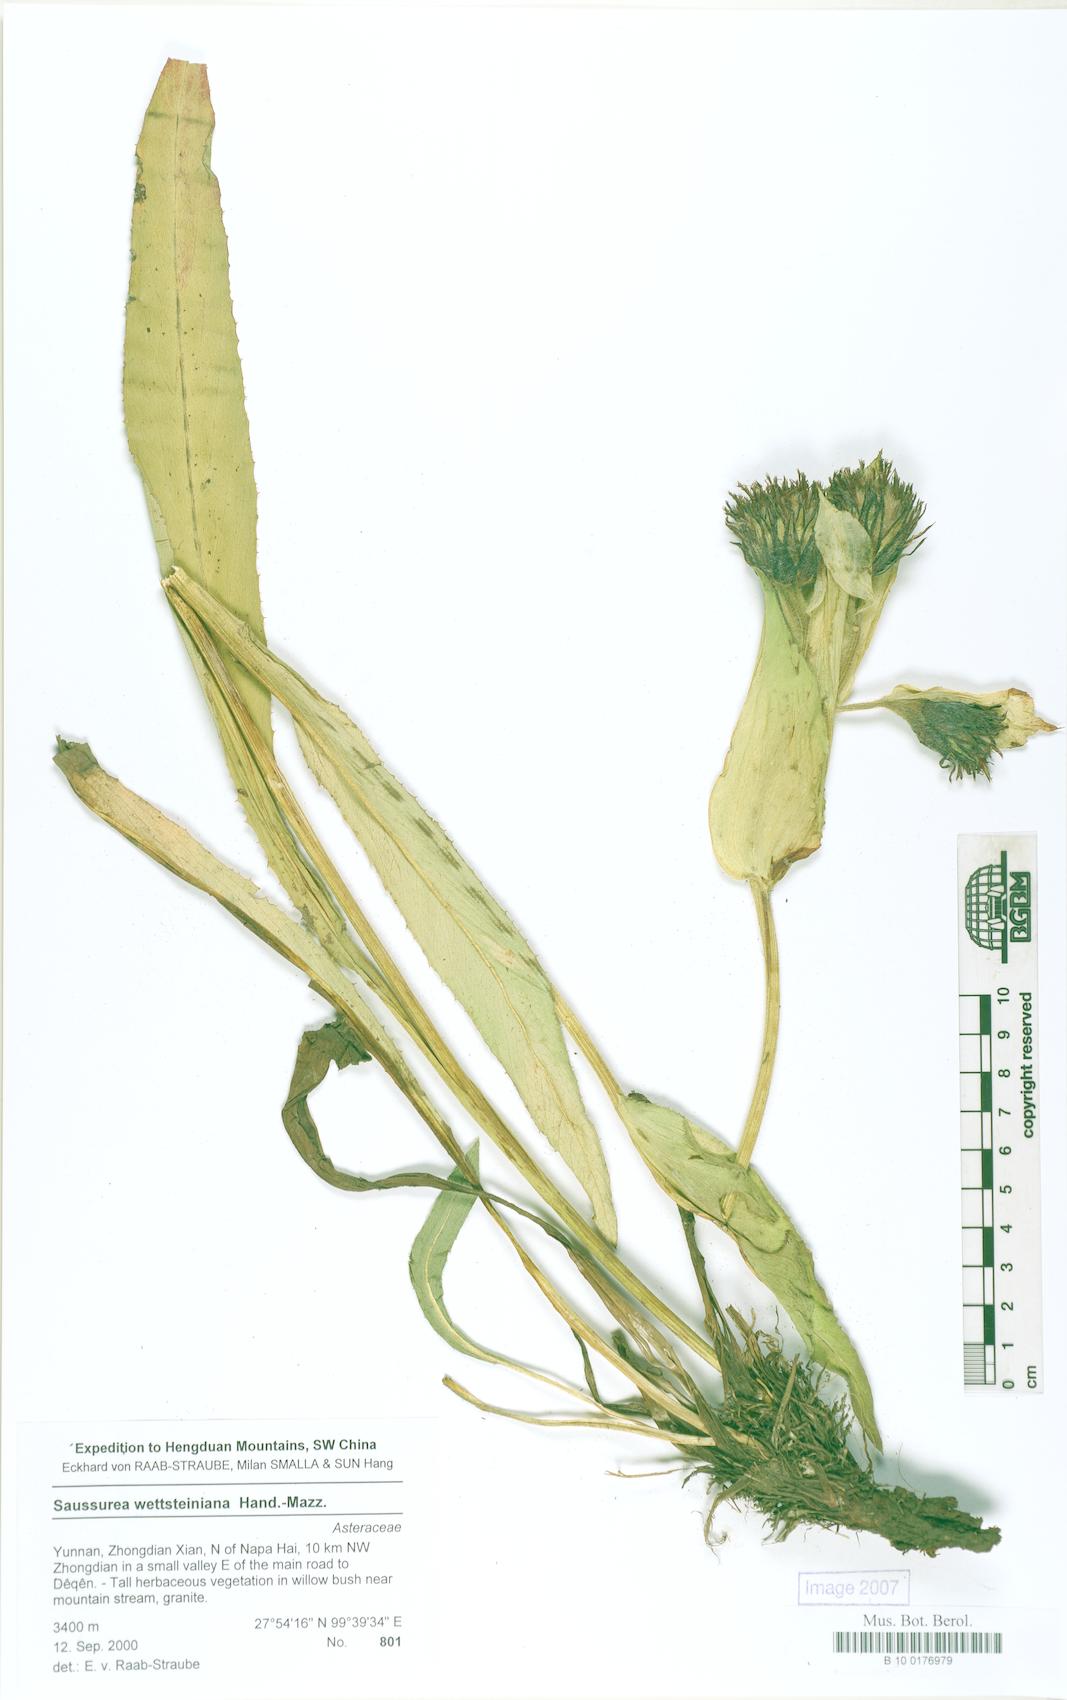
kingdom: Plantae
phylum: Tracheophyta
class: Magnoliopsida
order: Asterales
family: Asteraceae
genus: Saussurea
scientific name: Saussurea wettsteiniana
